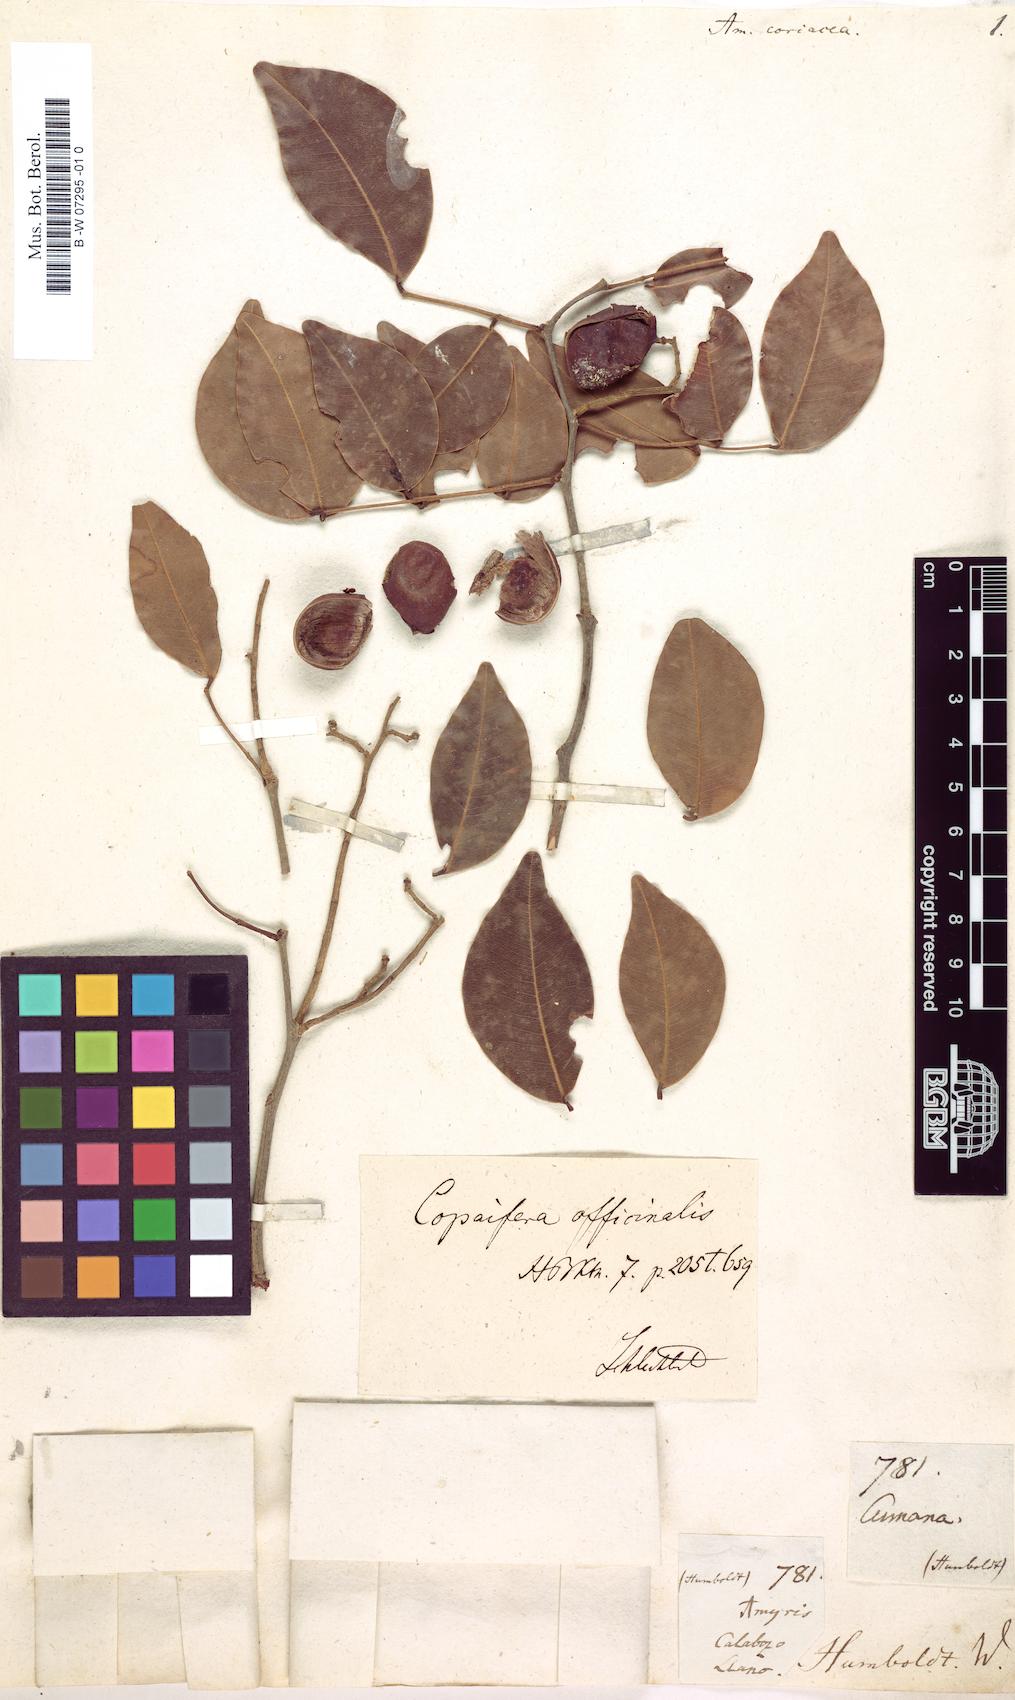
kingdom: Plantae
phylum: Tracheophyta
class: Magnoliopsida
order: Sapindales
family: Rutaceae
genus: Amyris
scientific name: Amyris
